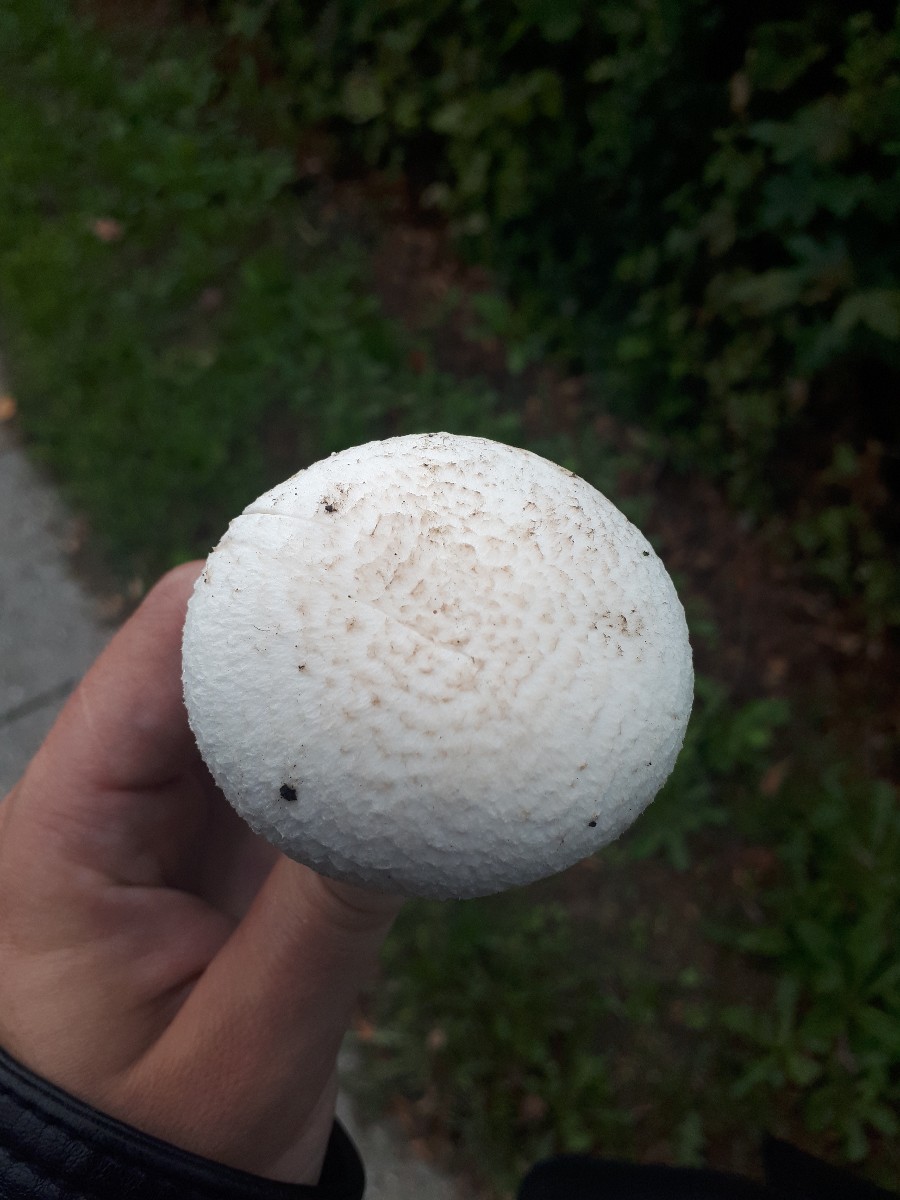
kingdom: Fungi
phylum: Basidiomycota
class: Agaricomycetes
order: Agaricales
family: Agaricaceae
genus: Agaricus
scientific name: Agaricus campestris
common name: mark-champignon
